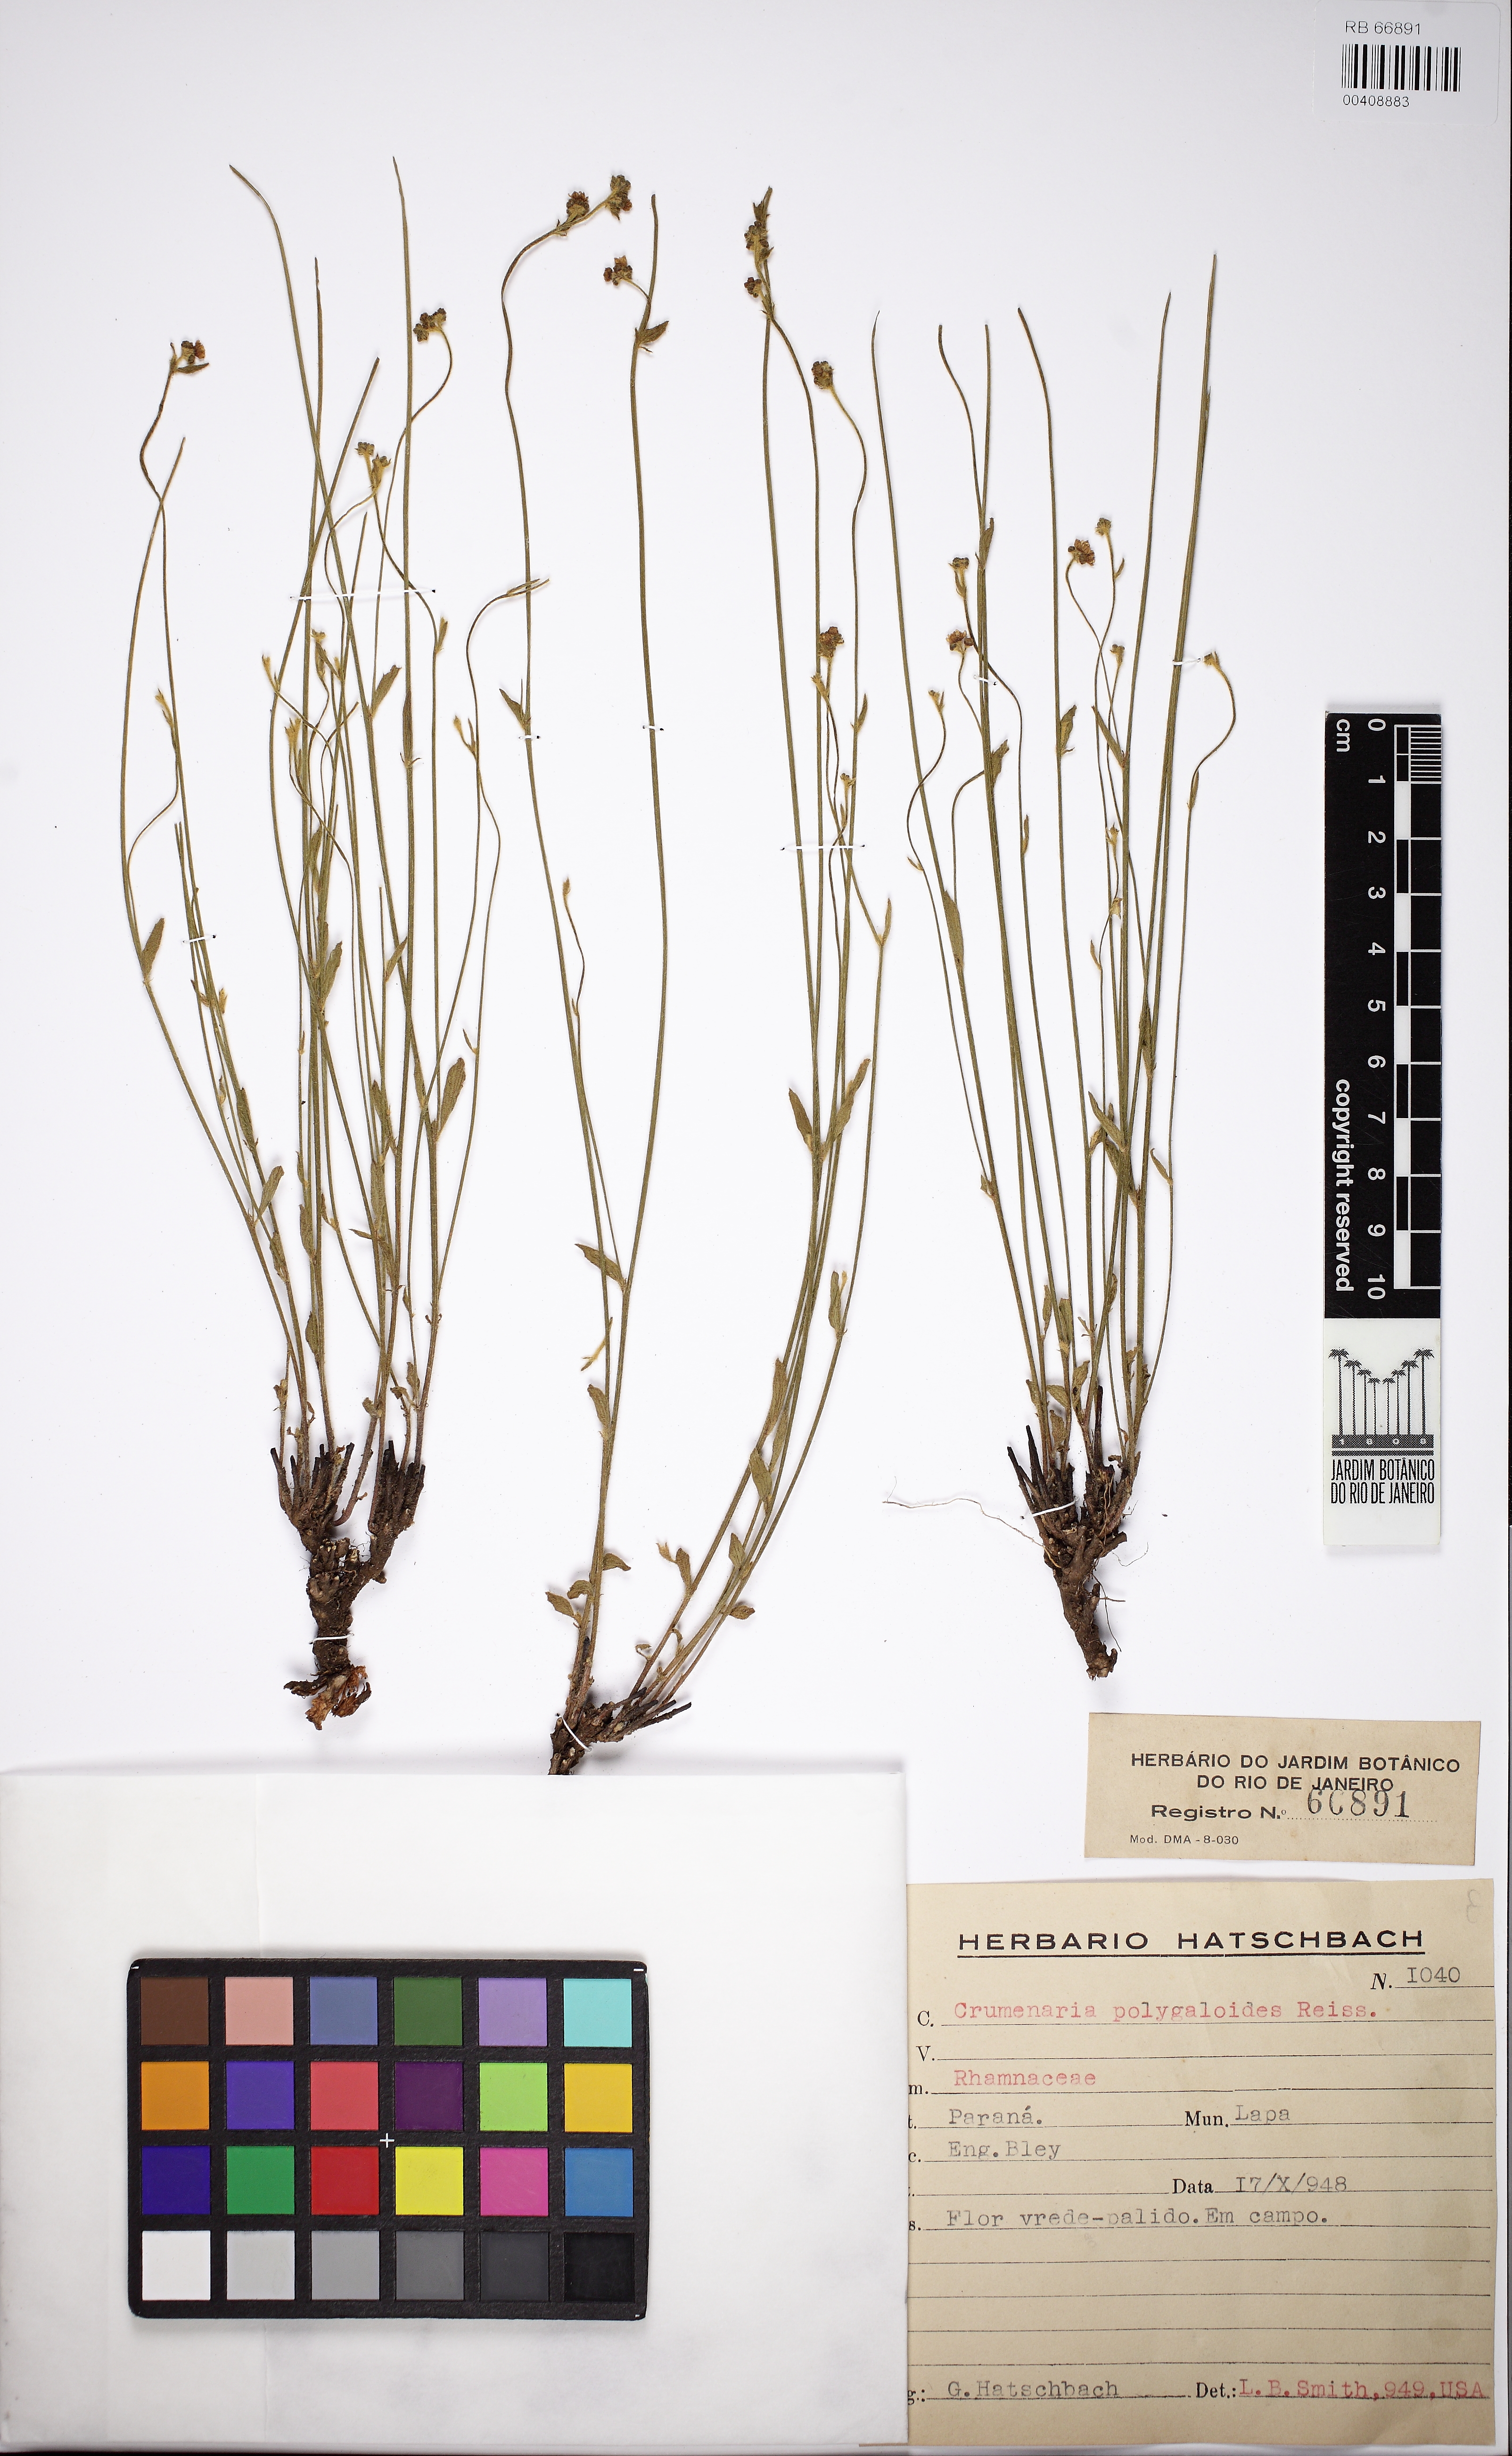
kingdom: Plantae
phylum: Tracheophyta
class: Magnoliopsida
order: Rosales
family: Rhamnaceae
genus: Crumenaria
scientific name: Crumenaria choretroides
